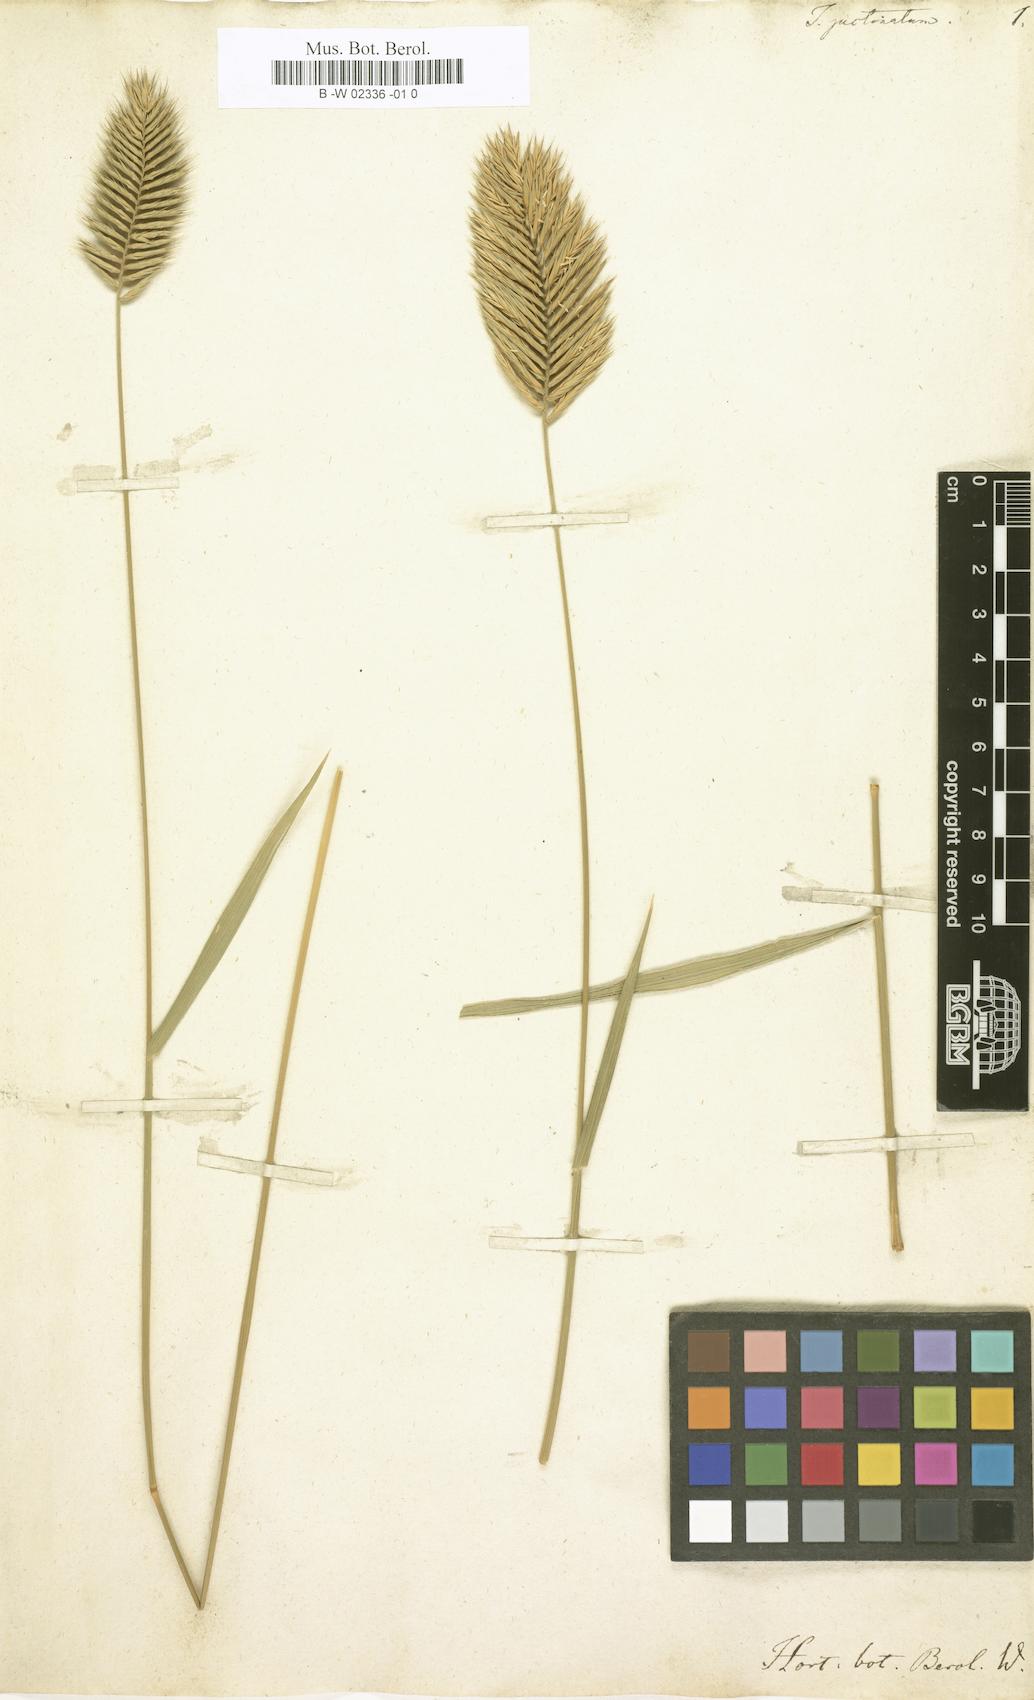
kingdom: Plantae
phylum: Tracheophyta
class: Liliopsida
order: Poales
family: Poaceae
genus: Agropyron
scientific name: Agropyron cristatum
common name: Crested wheatgrass
